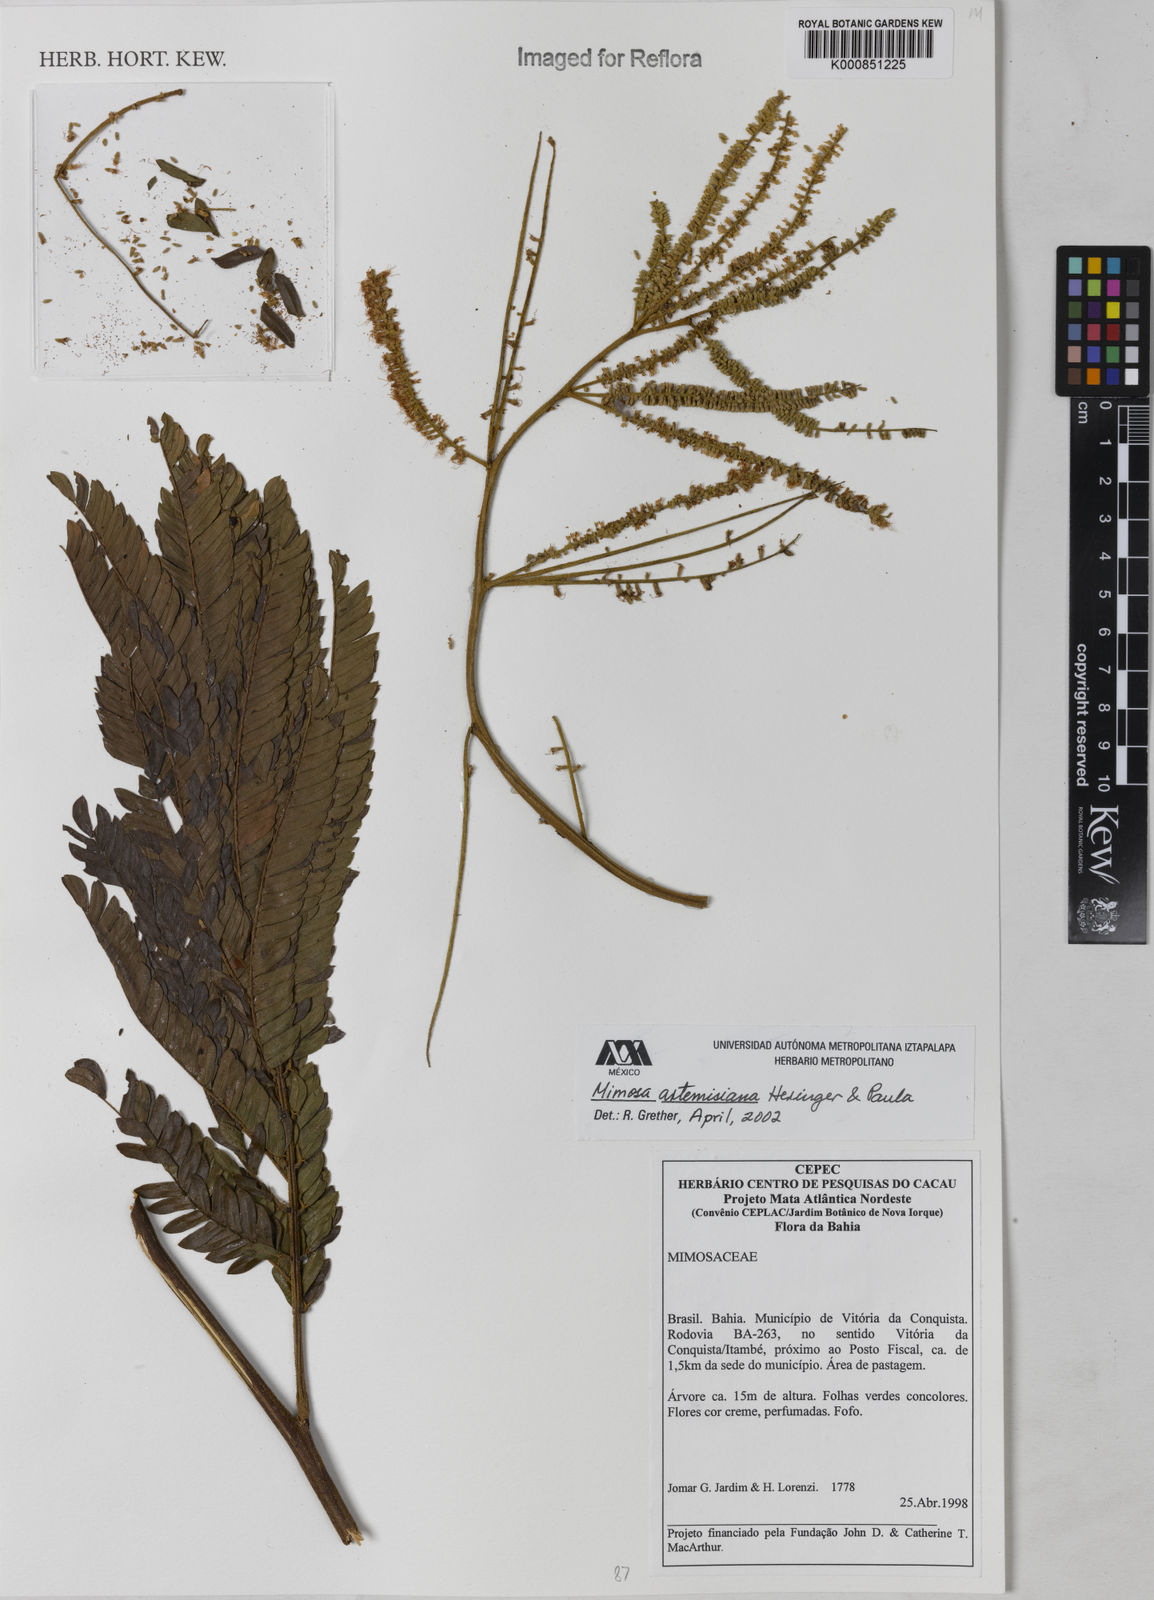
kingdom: Plantae
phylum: Tracheophyta
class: Magnoliopsida
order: Fabales
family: Fabaceae
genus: Mimosa
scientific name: Mimosa schomburgkii
